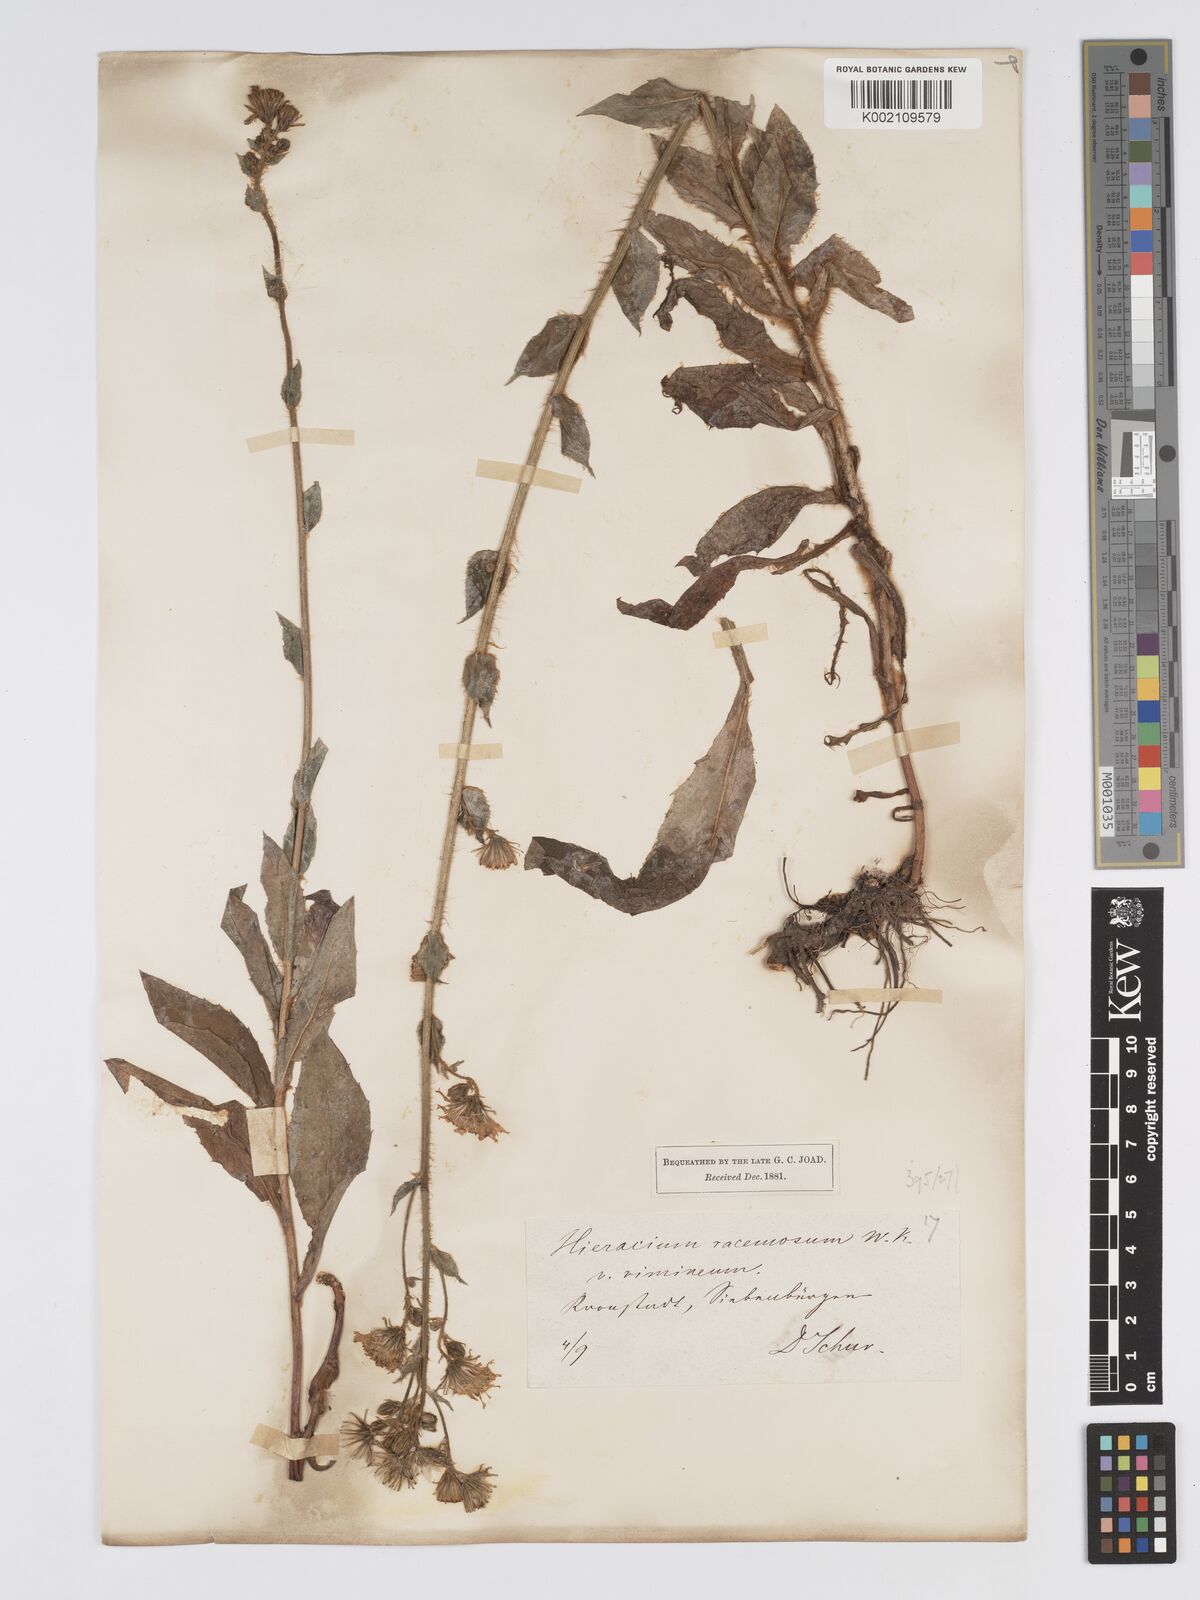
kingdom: Plantae
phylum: Tracheophyta
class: Magnoliopsida
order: Asterales
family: Asteraceae
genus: Hieracium
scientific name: Hieracium racemosum
